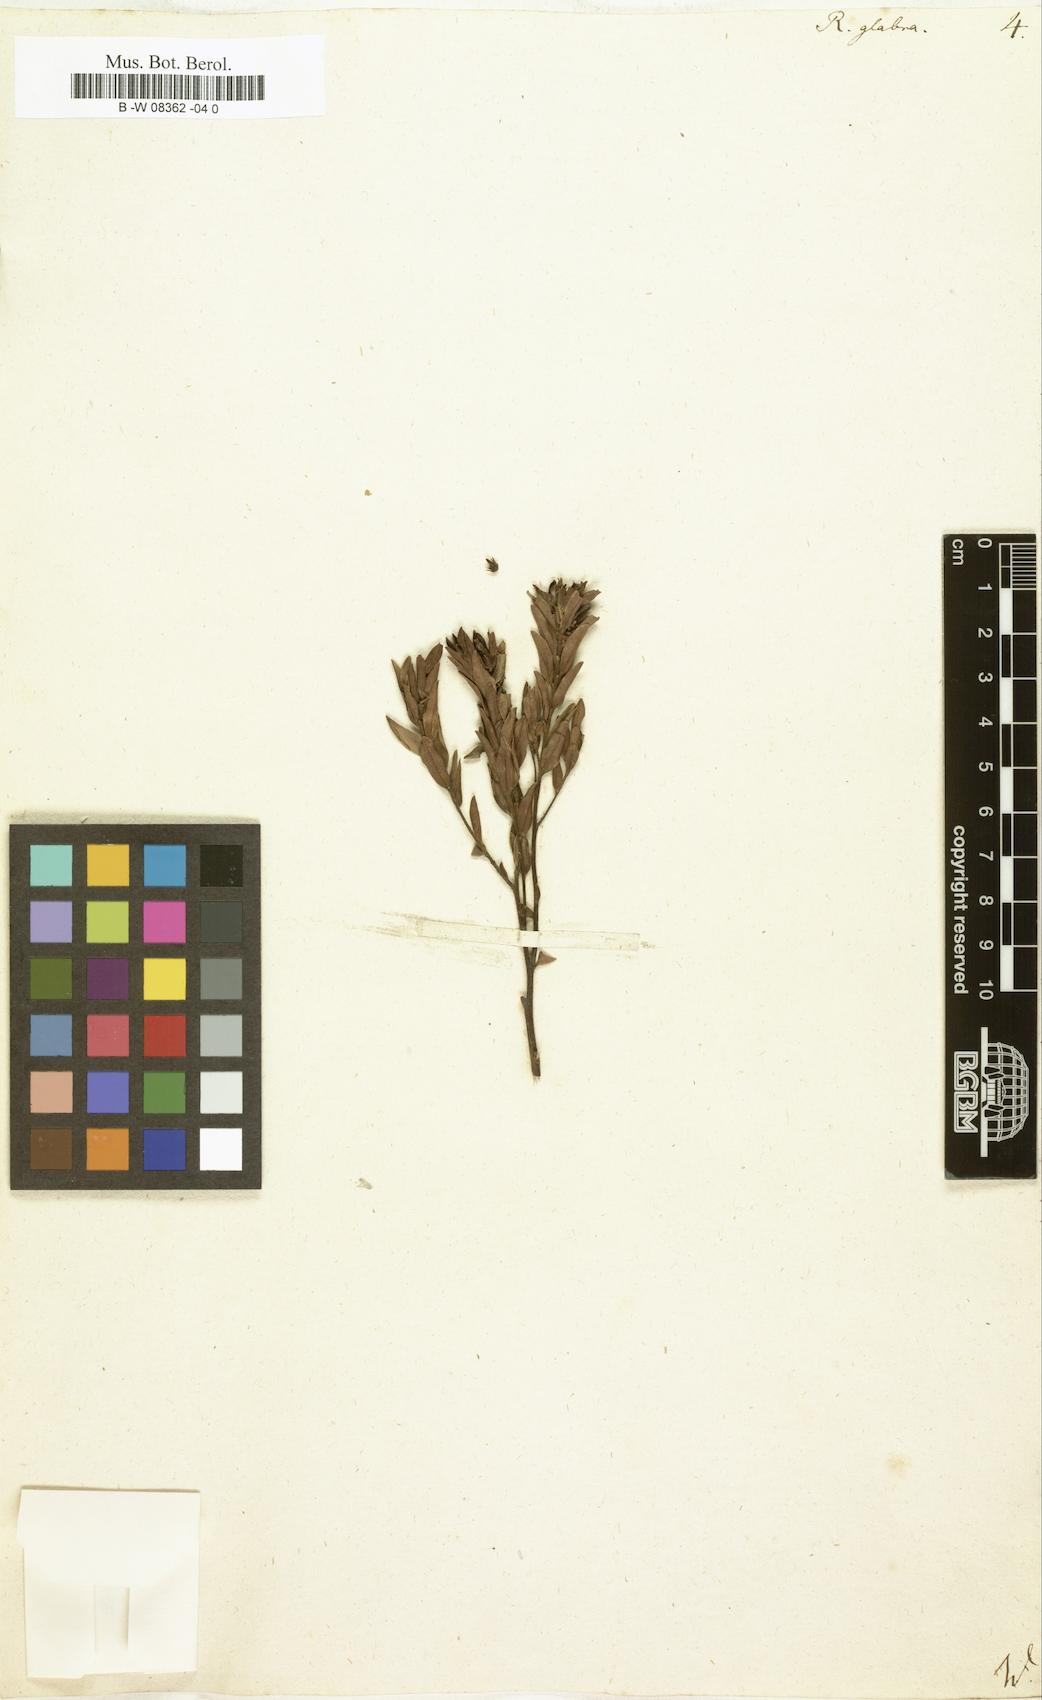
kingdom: Plantae
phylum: Tracheophyta
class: Magnoliopsida
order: Ericales
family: Ebenaceae
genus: Diospyros
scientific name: Diospyros glabra
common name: Fynbos star apple
